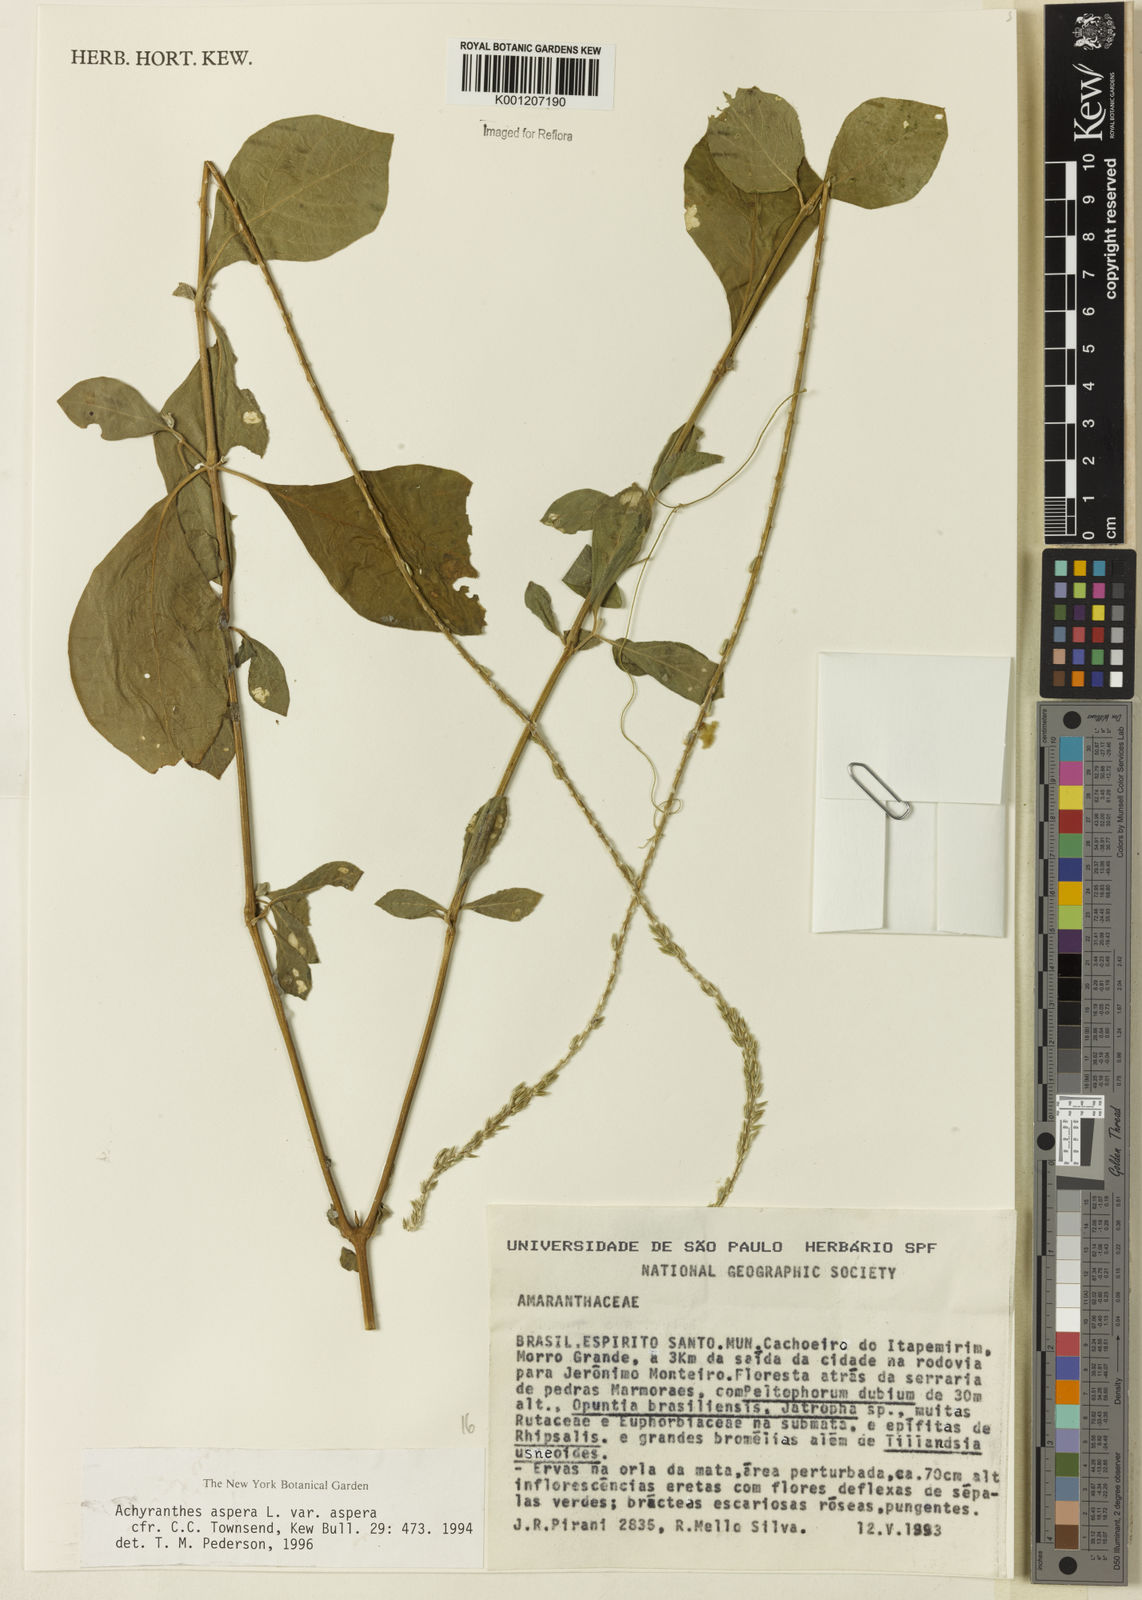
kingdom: Plantae
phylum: Tracheophyta
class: Magnoliopsida
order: Caryophyllales
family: Amaranthaceae
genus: Achyranthes
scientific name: Achyranthes aspera
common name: Devil's horsewhip
